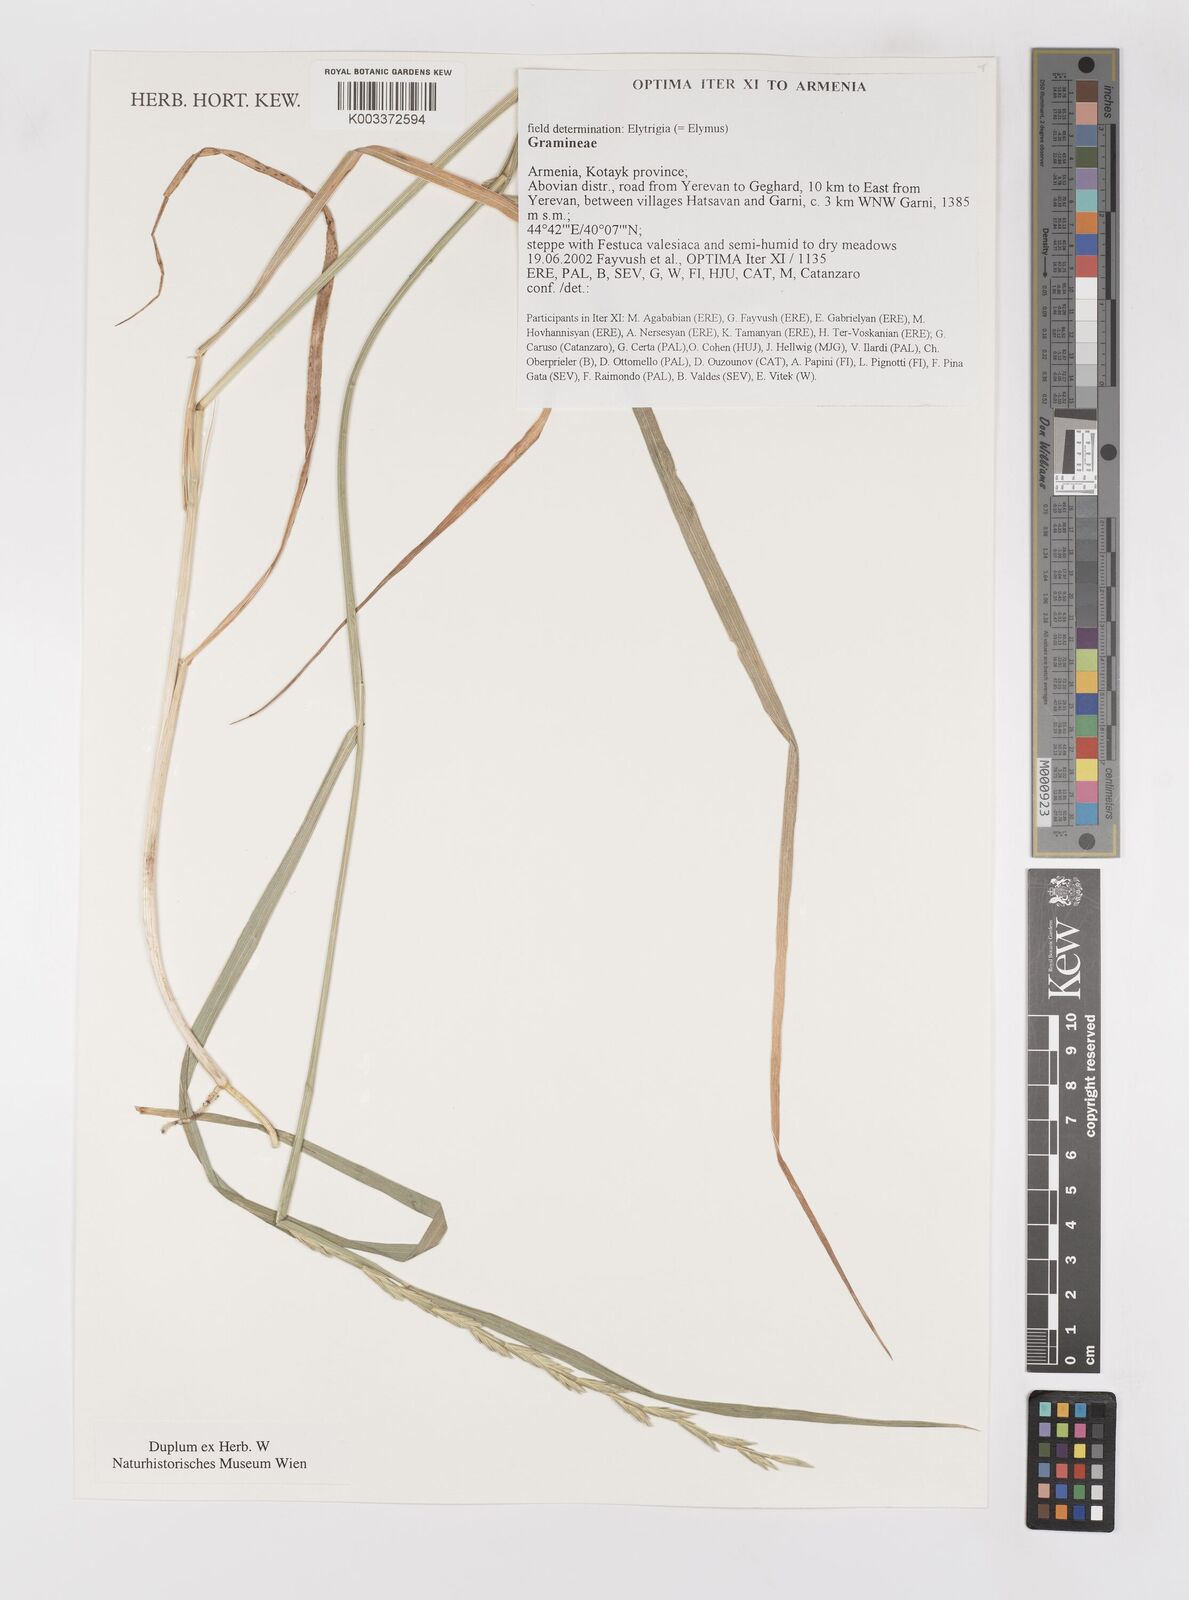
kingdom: Plantae
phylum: Tracheophyta
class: Liliopsida
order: Poales
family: Poaceae
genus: Elymus
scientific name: Elymus
